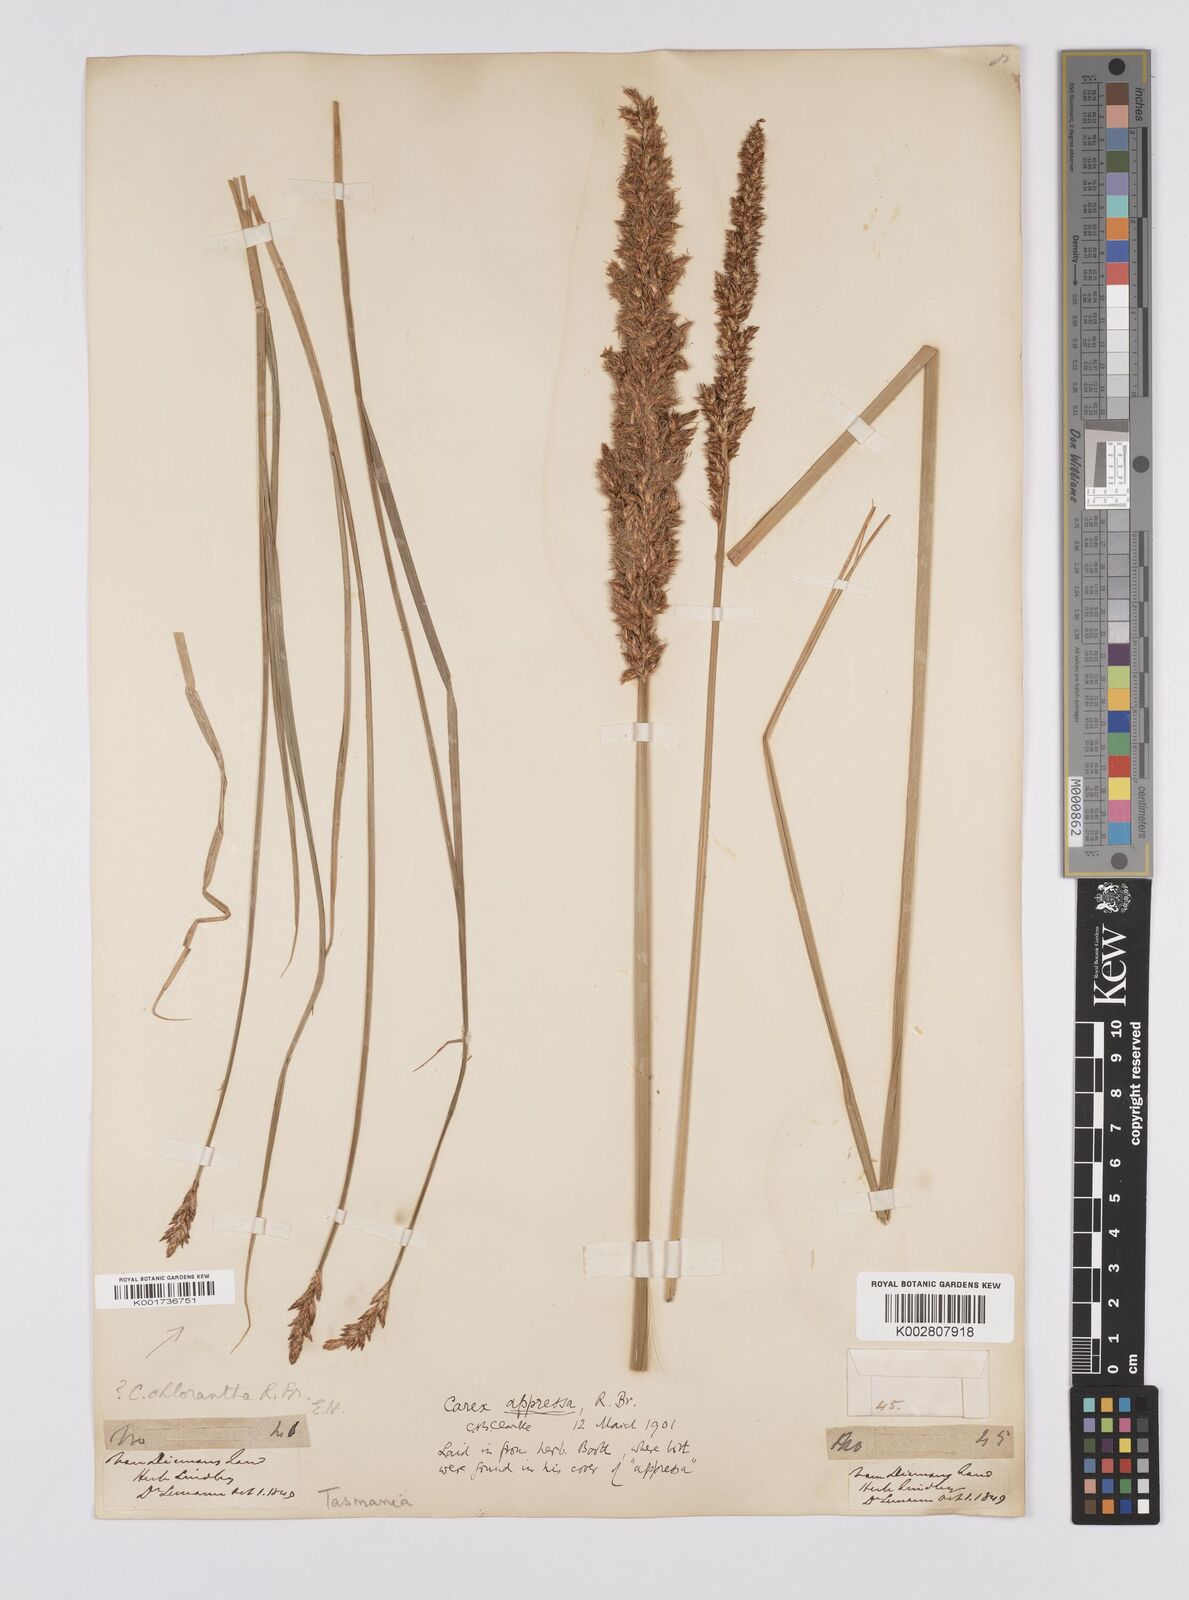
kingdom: Plantae
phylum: Tracheophyta
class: Liliopsida
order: Poales
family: Cyperaceae
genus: Carex
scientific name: Carex appressa
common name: Tussock sedge
